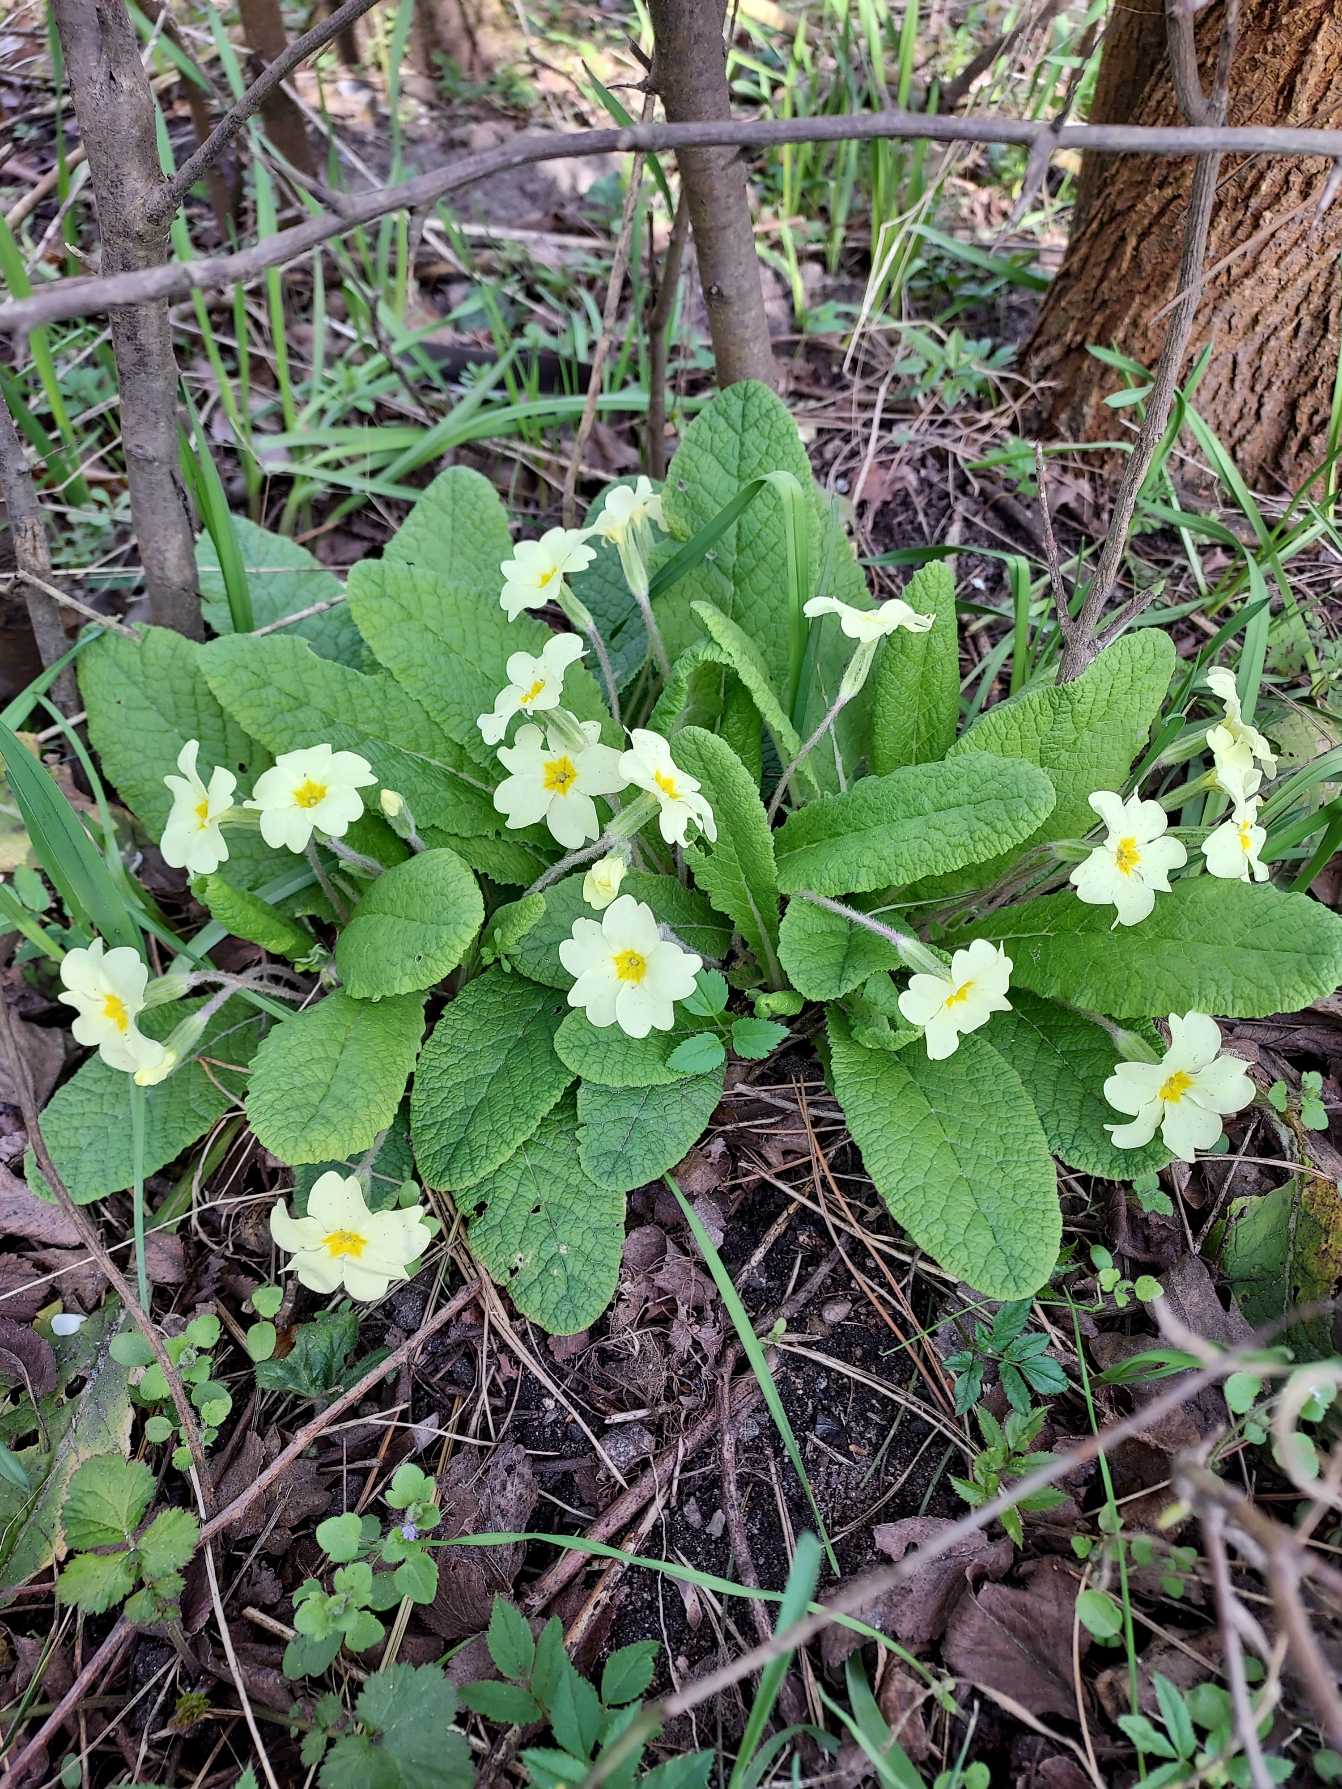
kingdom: Plantae
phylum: Tracheophyta
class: Magnoliopsida
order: Ericales
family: Primulaceae
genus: Primula
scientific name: Primula vulgaris
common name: Storblomstret kodriver
